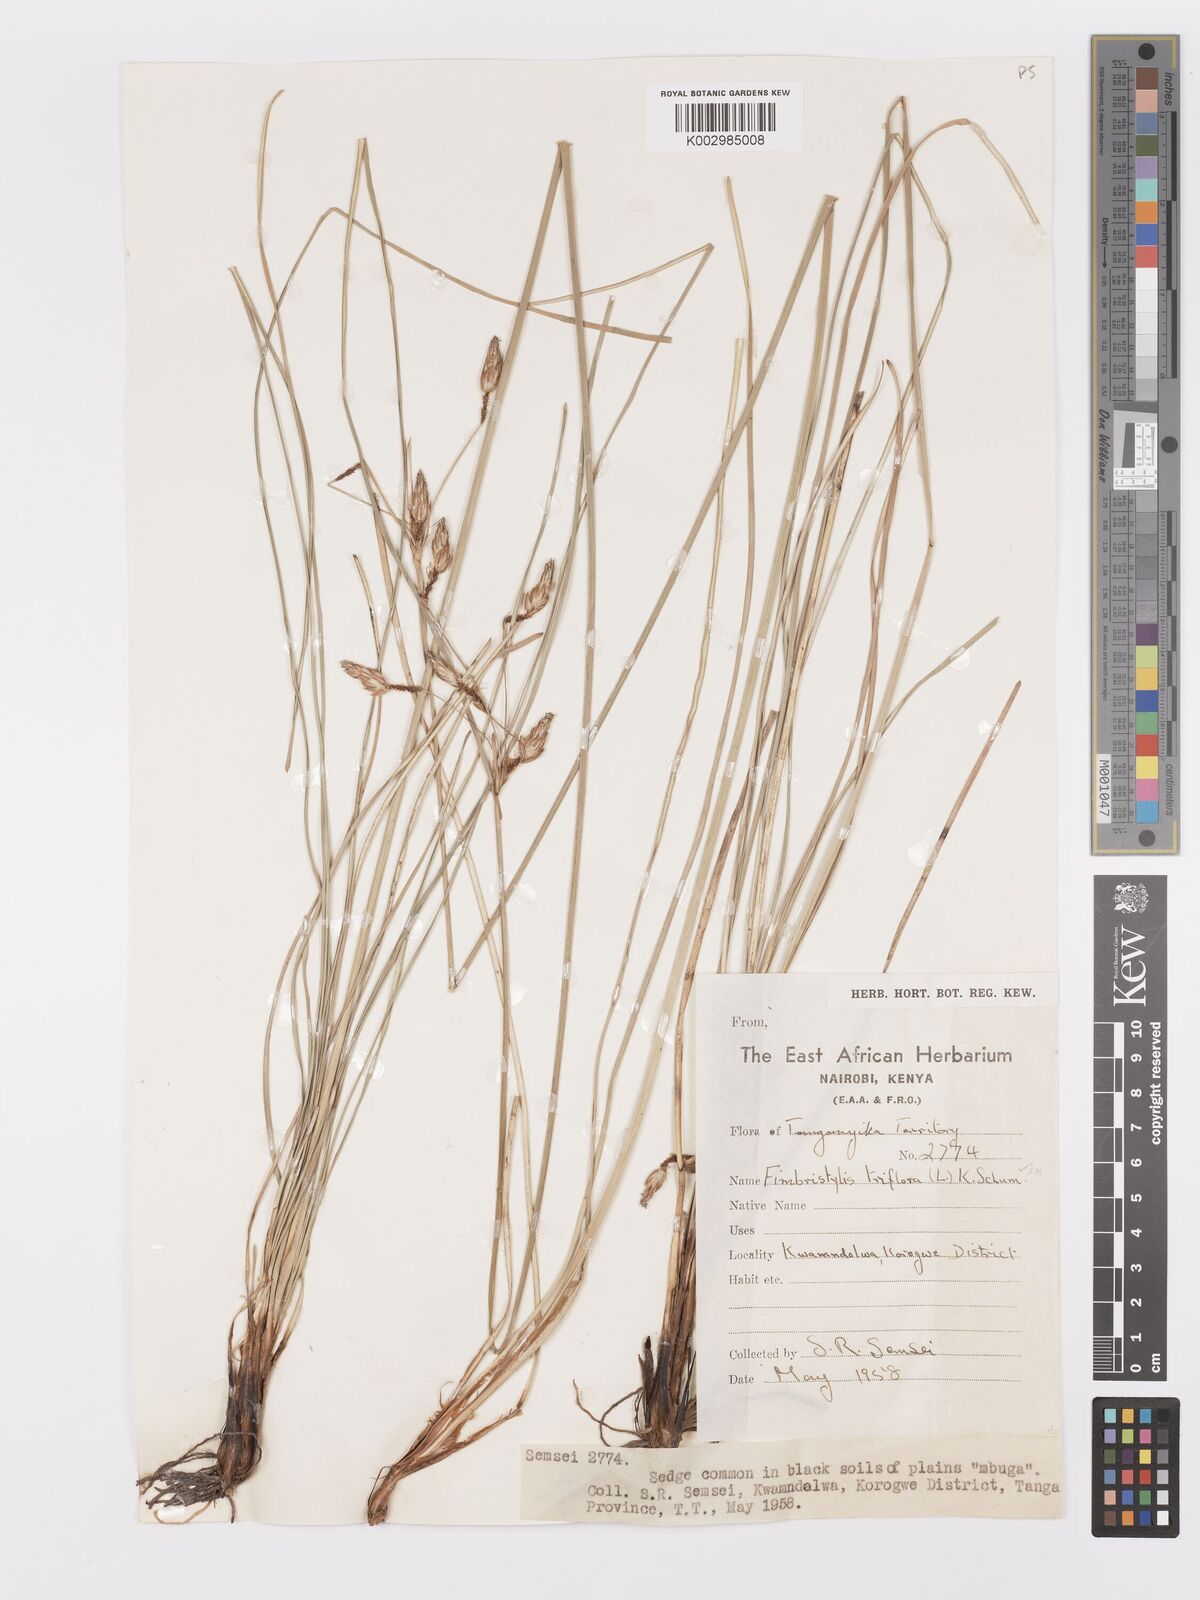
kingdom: Plantae
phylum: Tracheophyta
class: Liliopsida
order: Poales
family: Cyperaceae
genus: Abildgaardia
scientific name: Abildgaardia triflora
